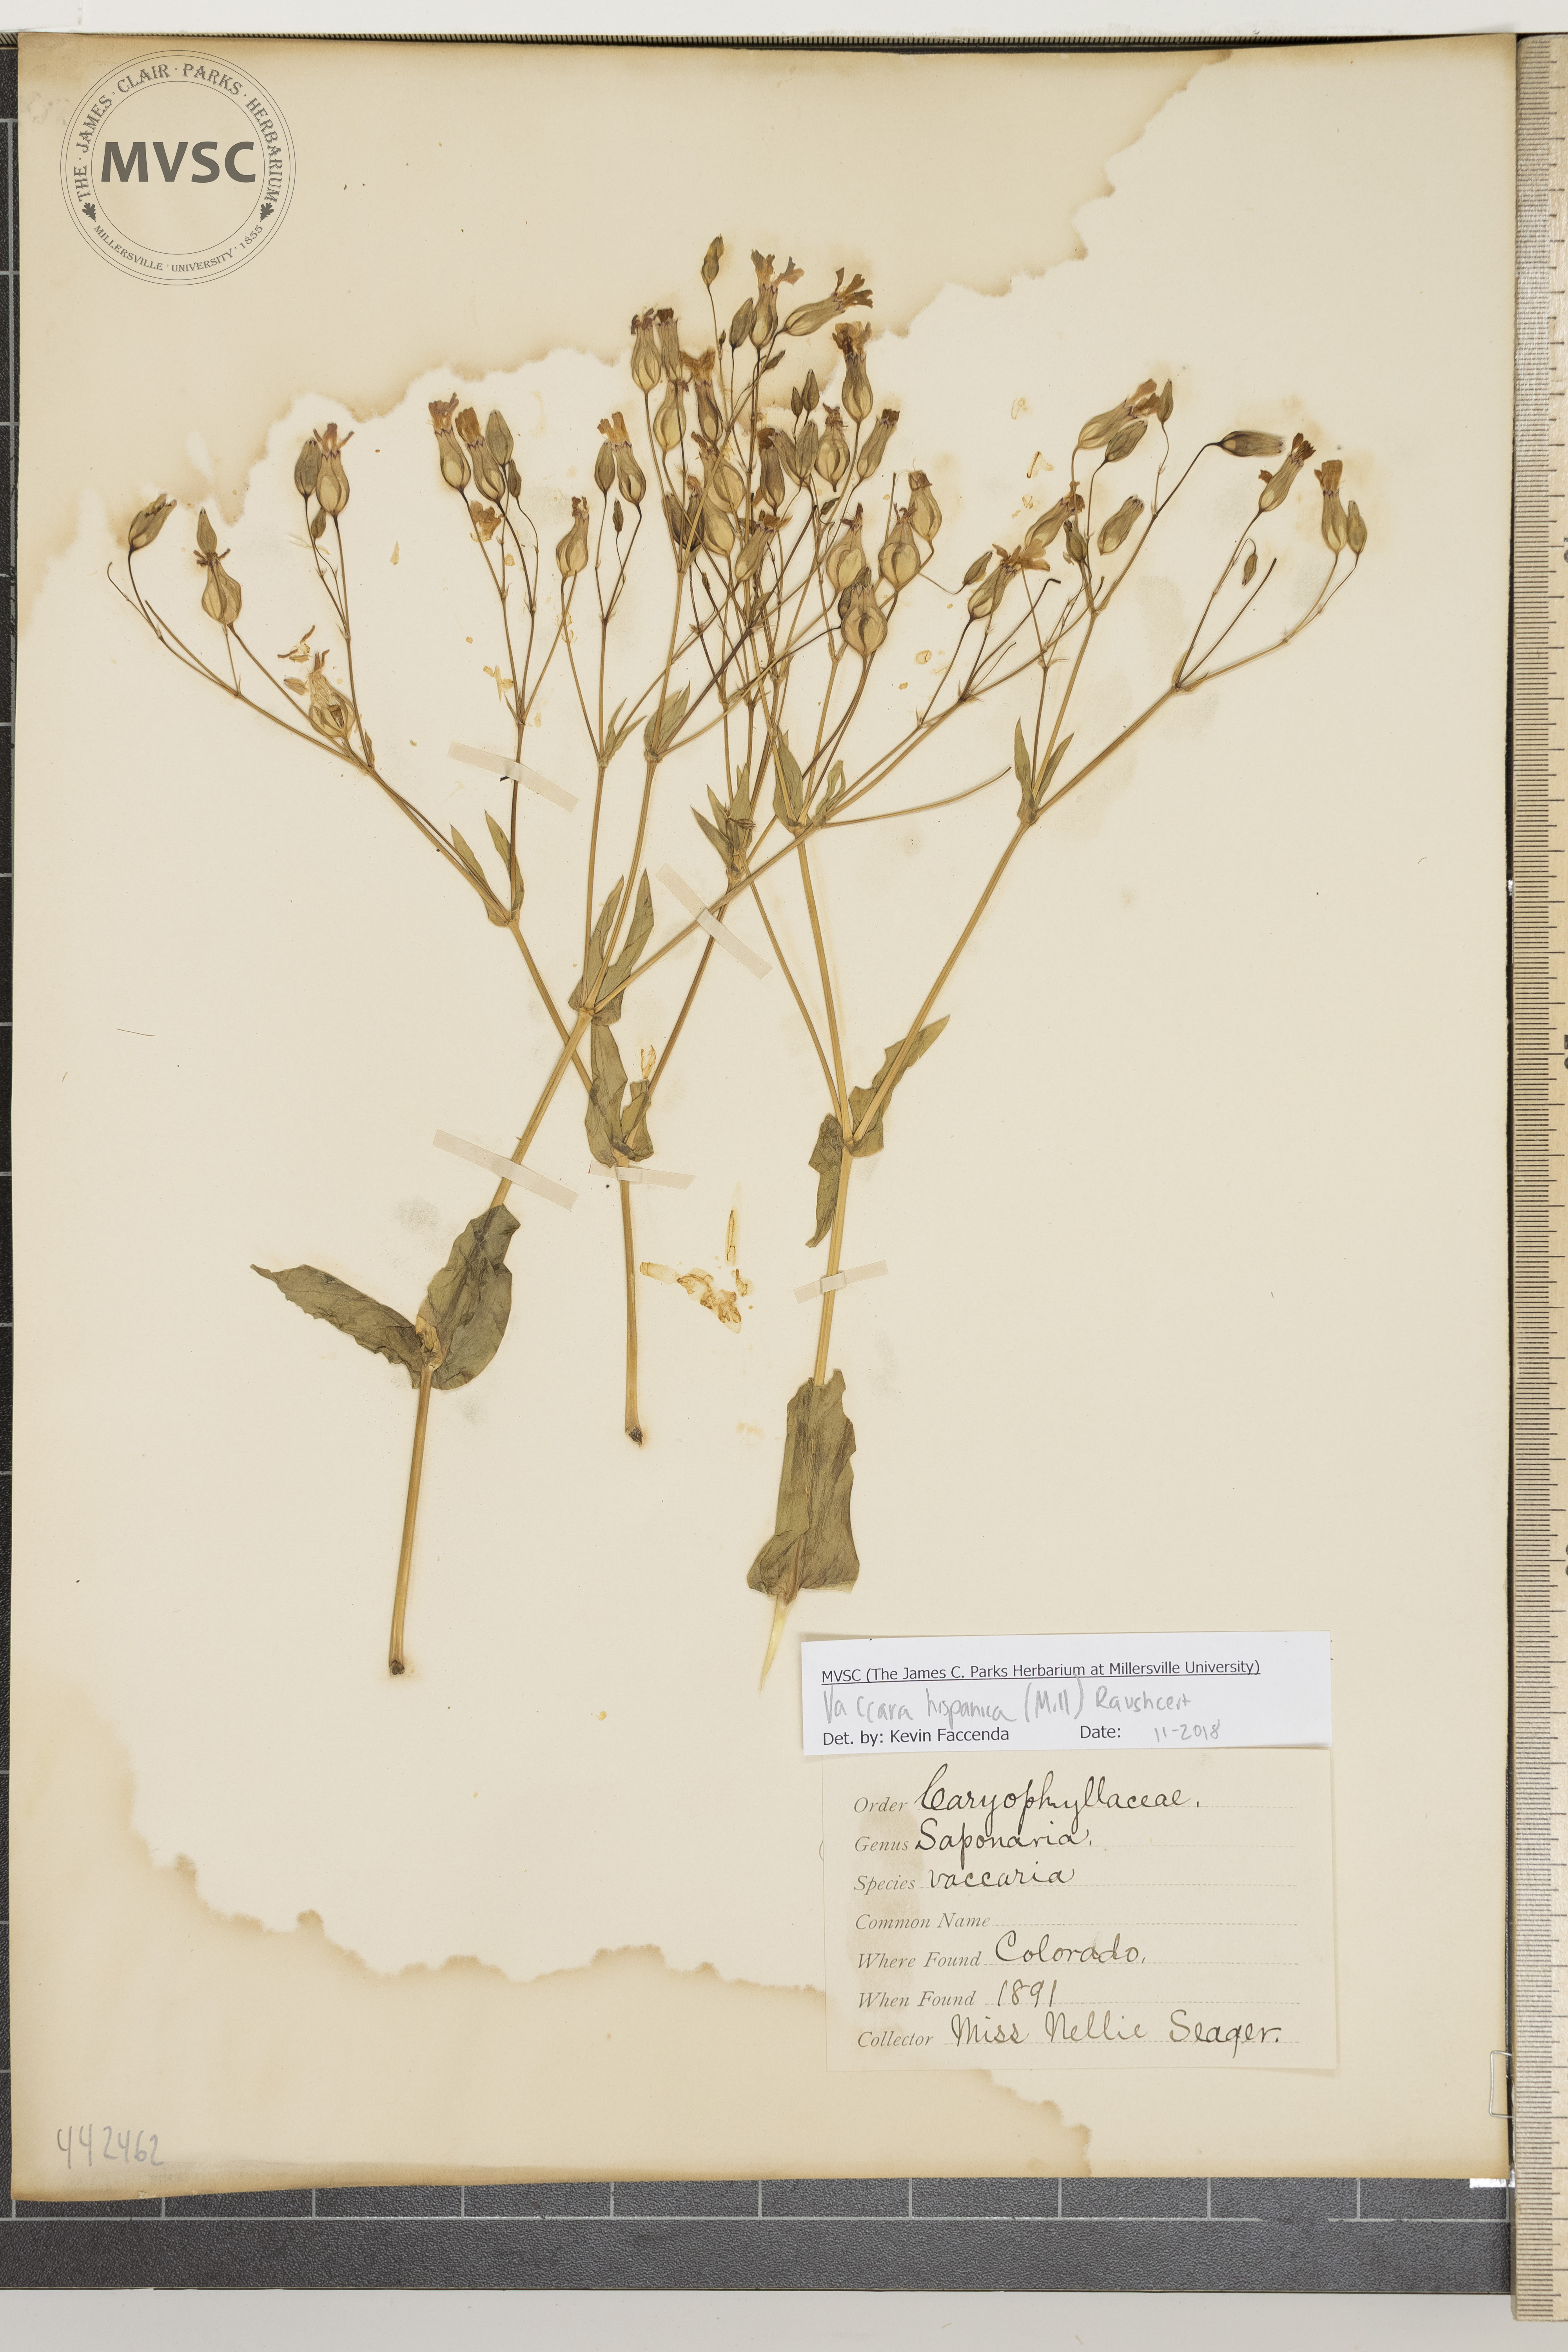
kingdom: Plantae
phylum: Tracheophyta
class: Magnoliopsida
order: Caryophyllales
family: Caryophyllaceae
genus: Gypsophila
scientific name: Gypsophila vaccaria
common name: Cow soapwort
